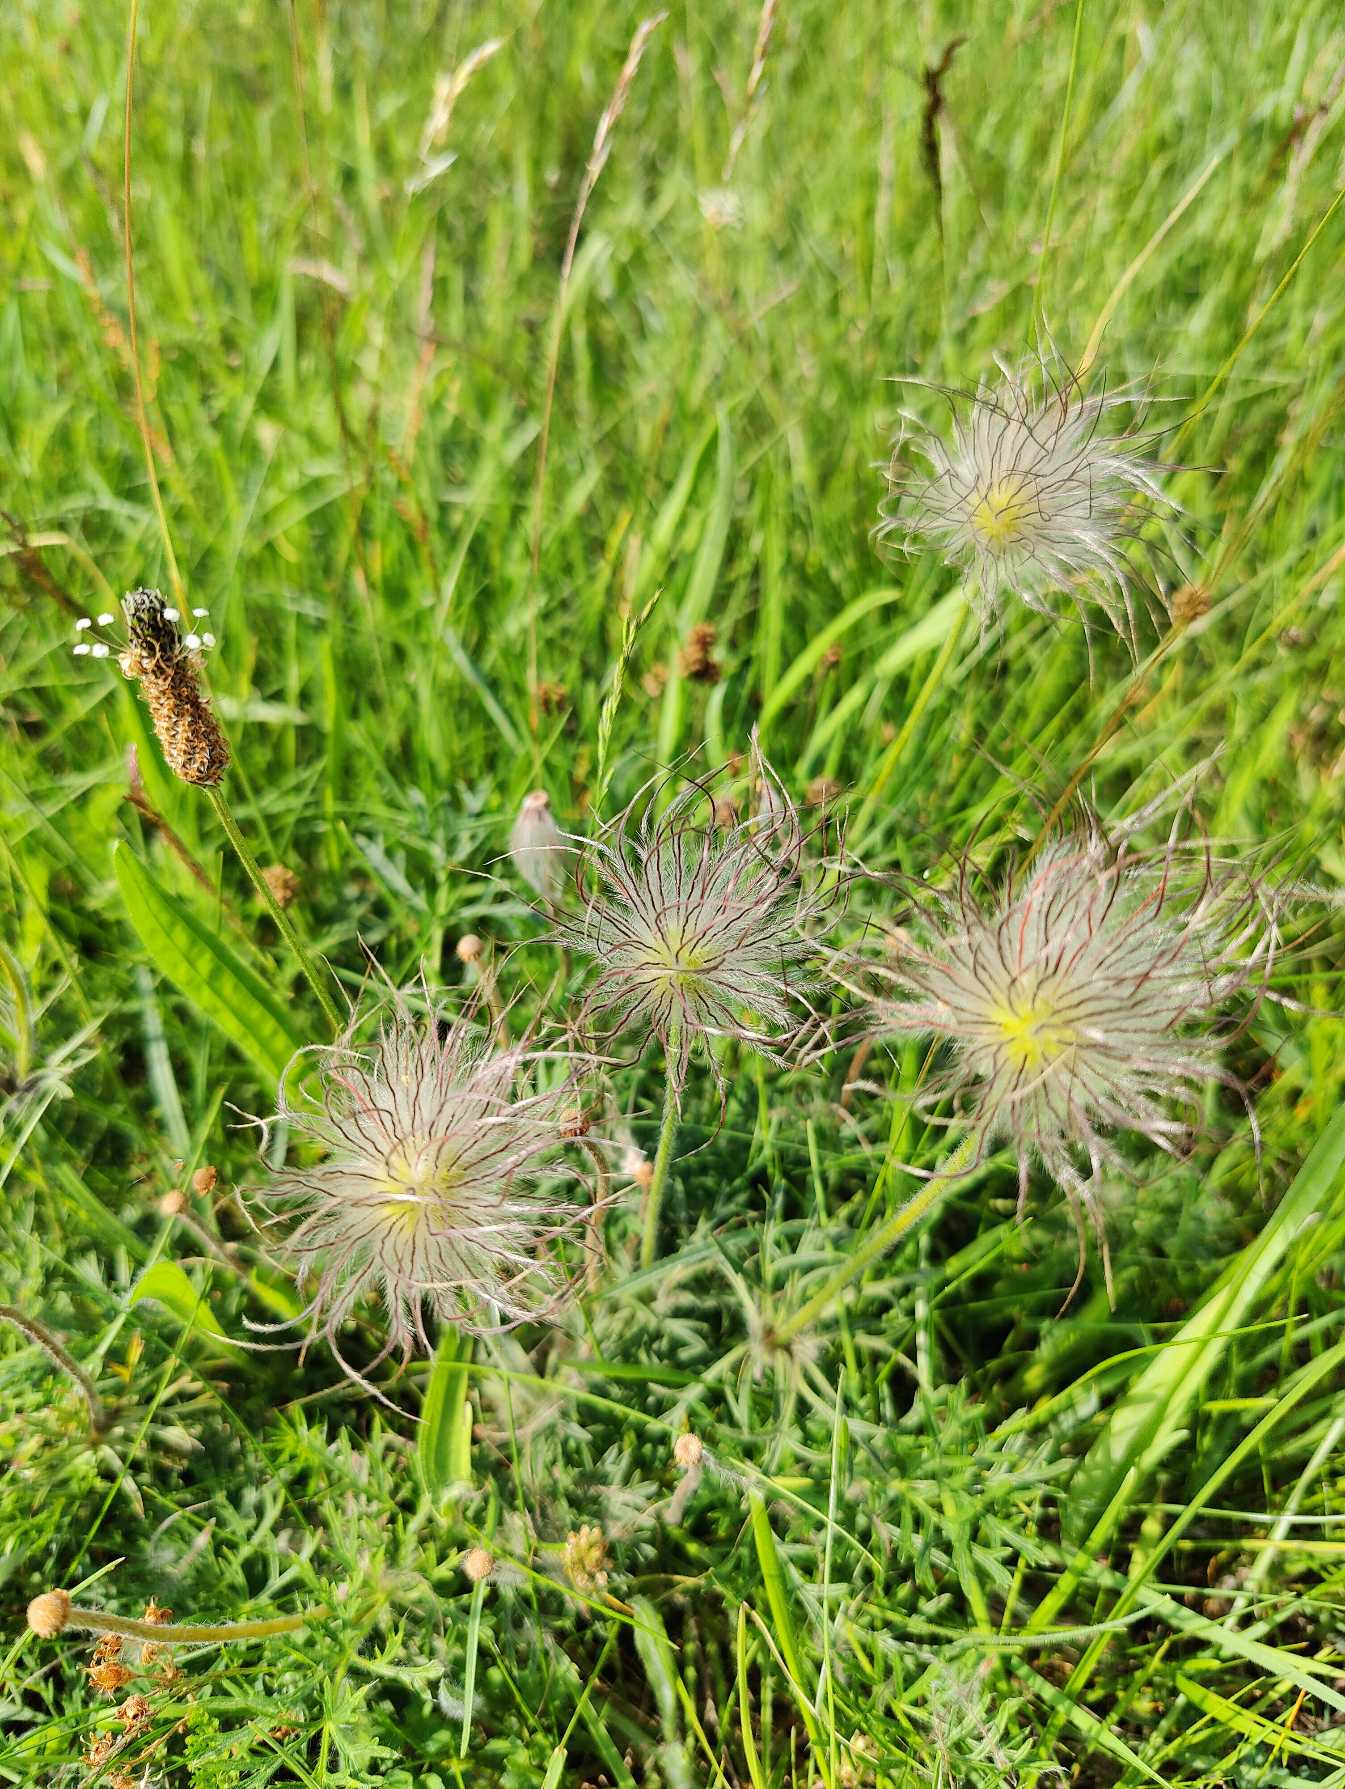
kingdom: Plantae
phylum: Tracheophyta
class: Magnoliopsida
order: Ranunculales
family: Ranunculaceae
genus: Pulsatilla
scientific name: Pulsatilla pratensis
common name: Nikkende kobjælde
